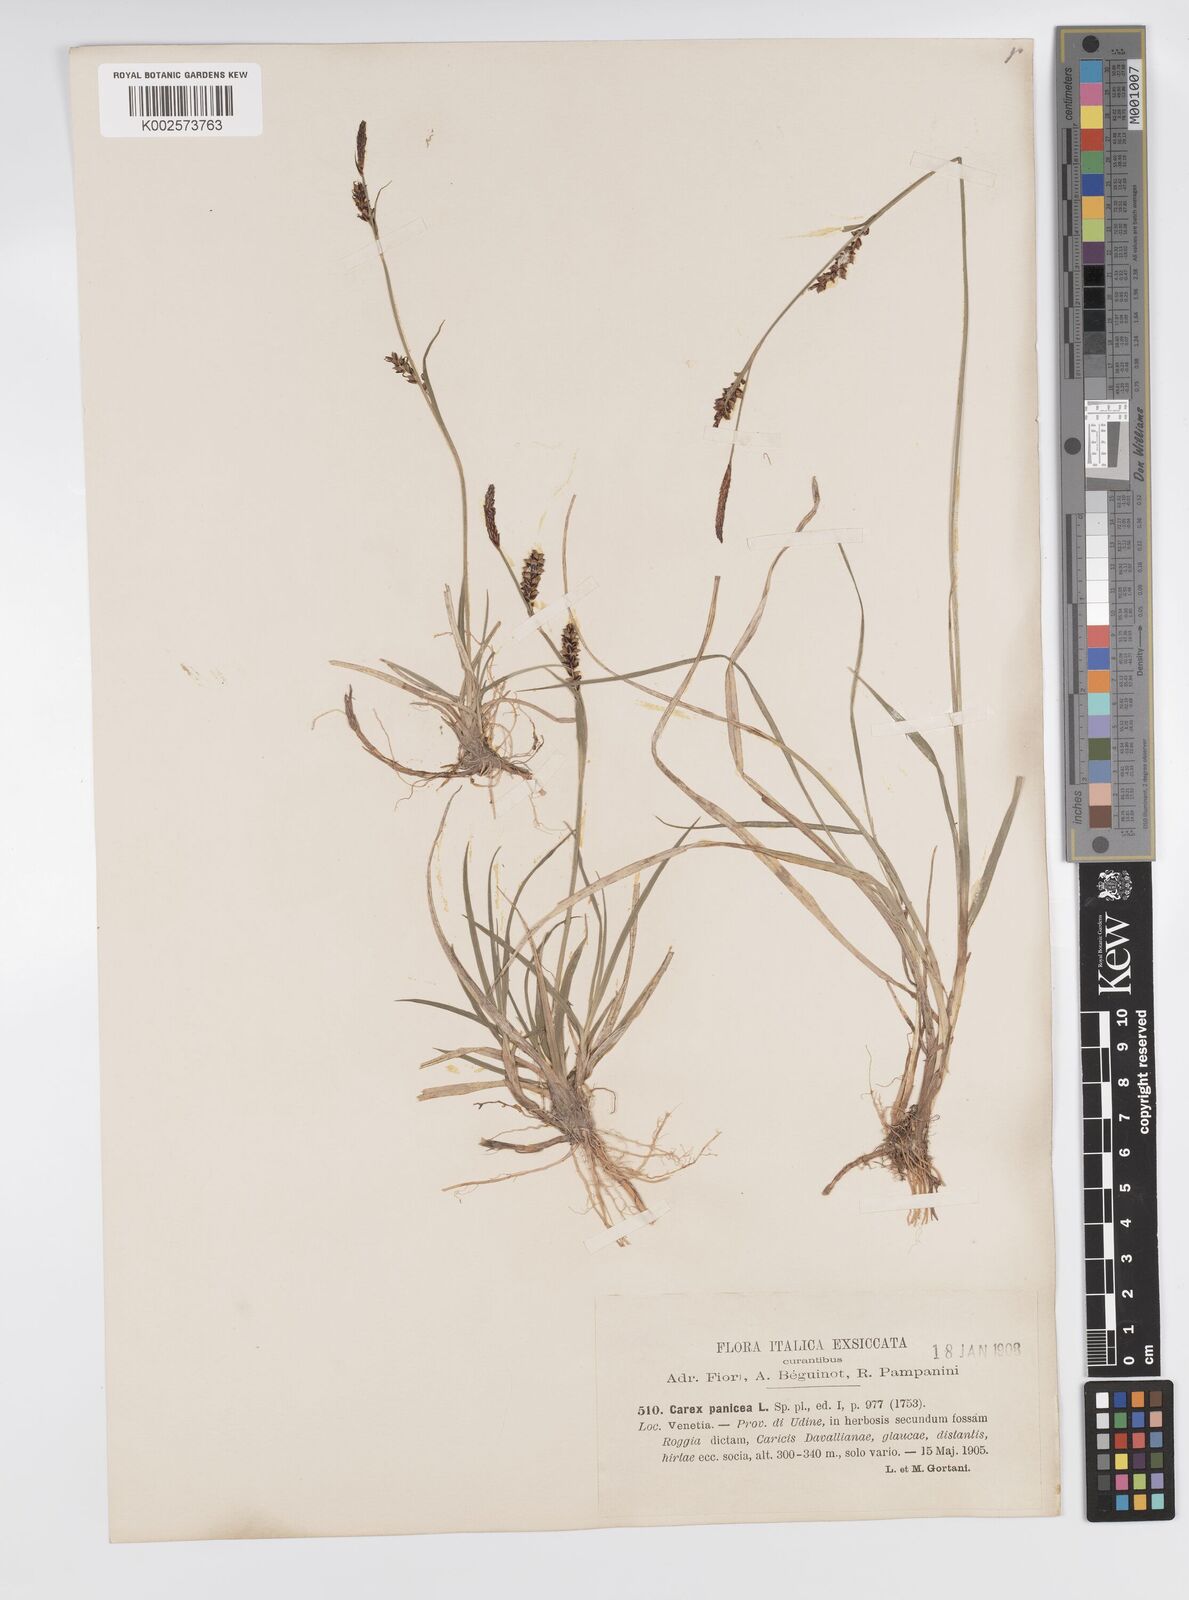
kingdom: Plantae
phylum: Tracheophyta
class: Liliopsida
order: Poales
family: Cyperaceae
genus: Carex
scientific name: Carex panicea
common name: Carnation sedge
